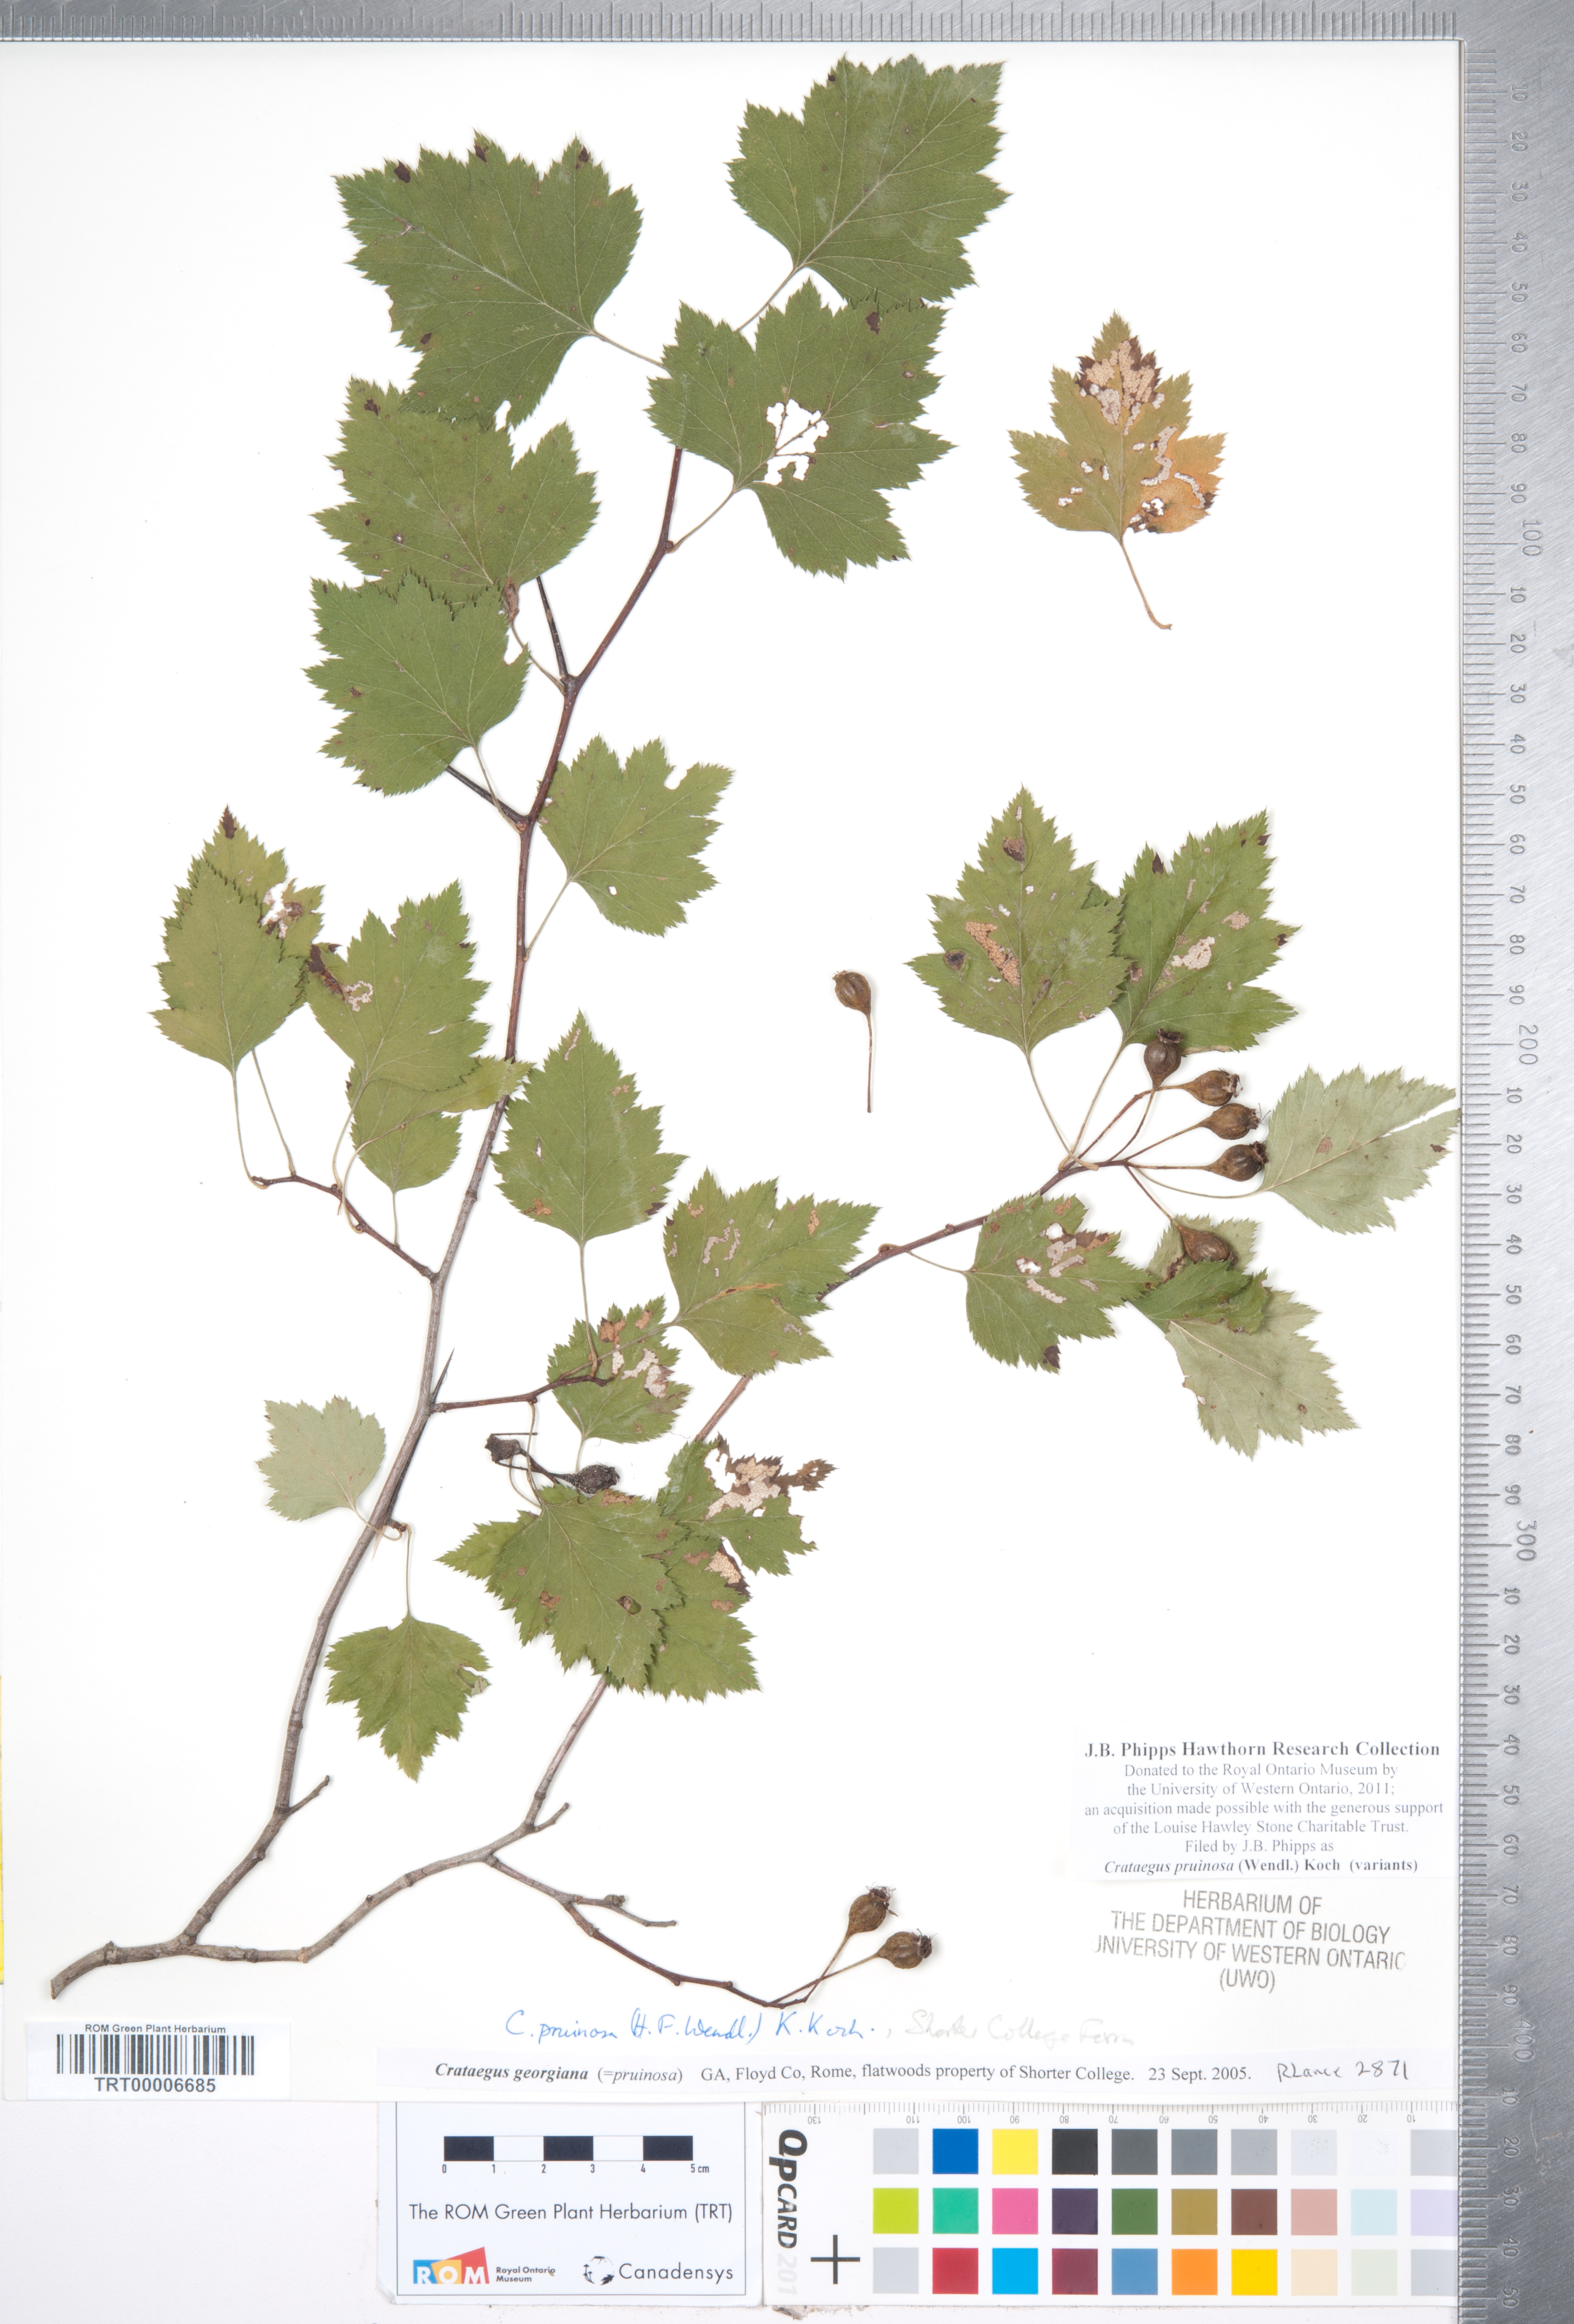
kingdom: Plantae
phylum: Tracheophyta
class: Magnoliopsida
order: Rosales
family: Rosaceae
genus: Crataegus
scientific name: Crataegus pruinosa
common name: Waxy-fruit hawthorn
